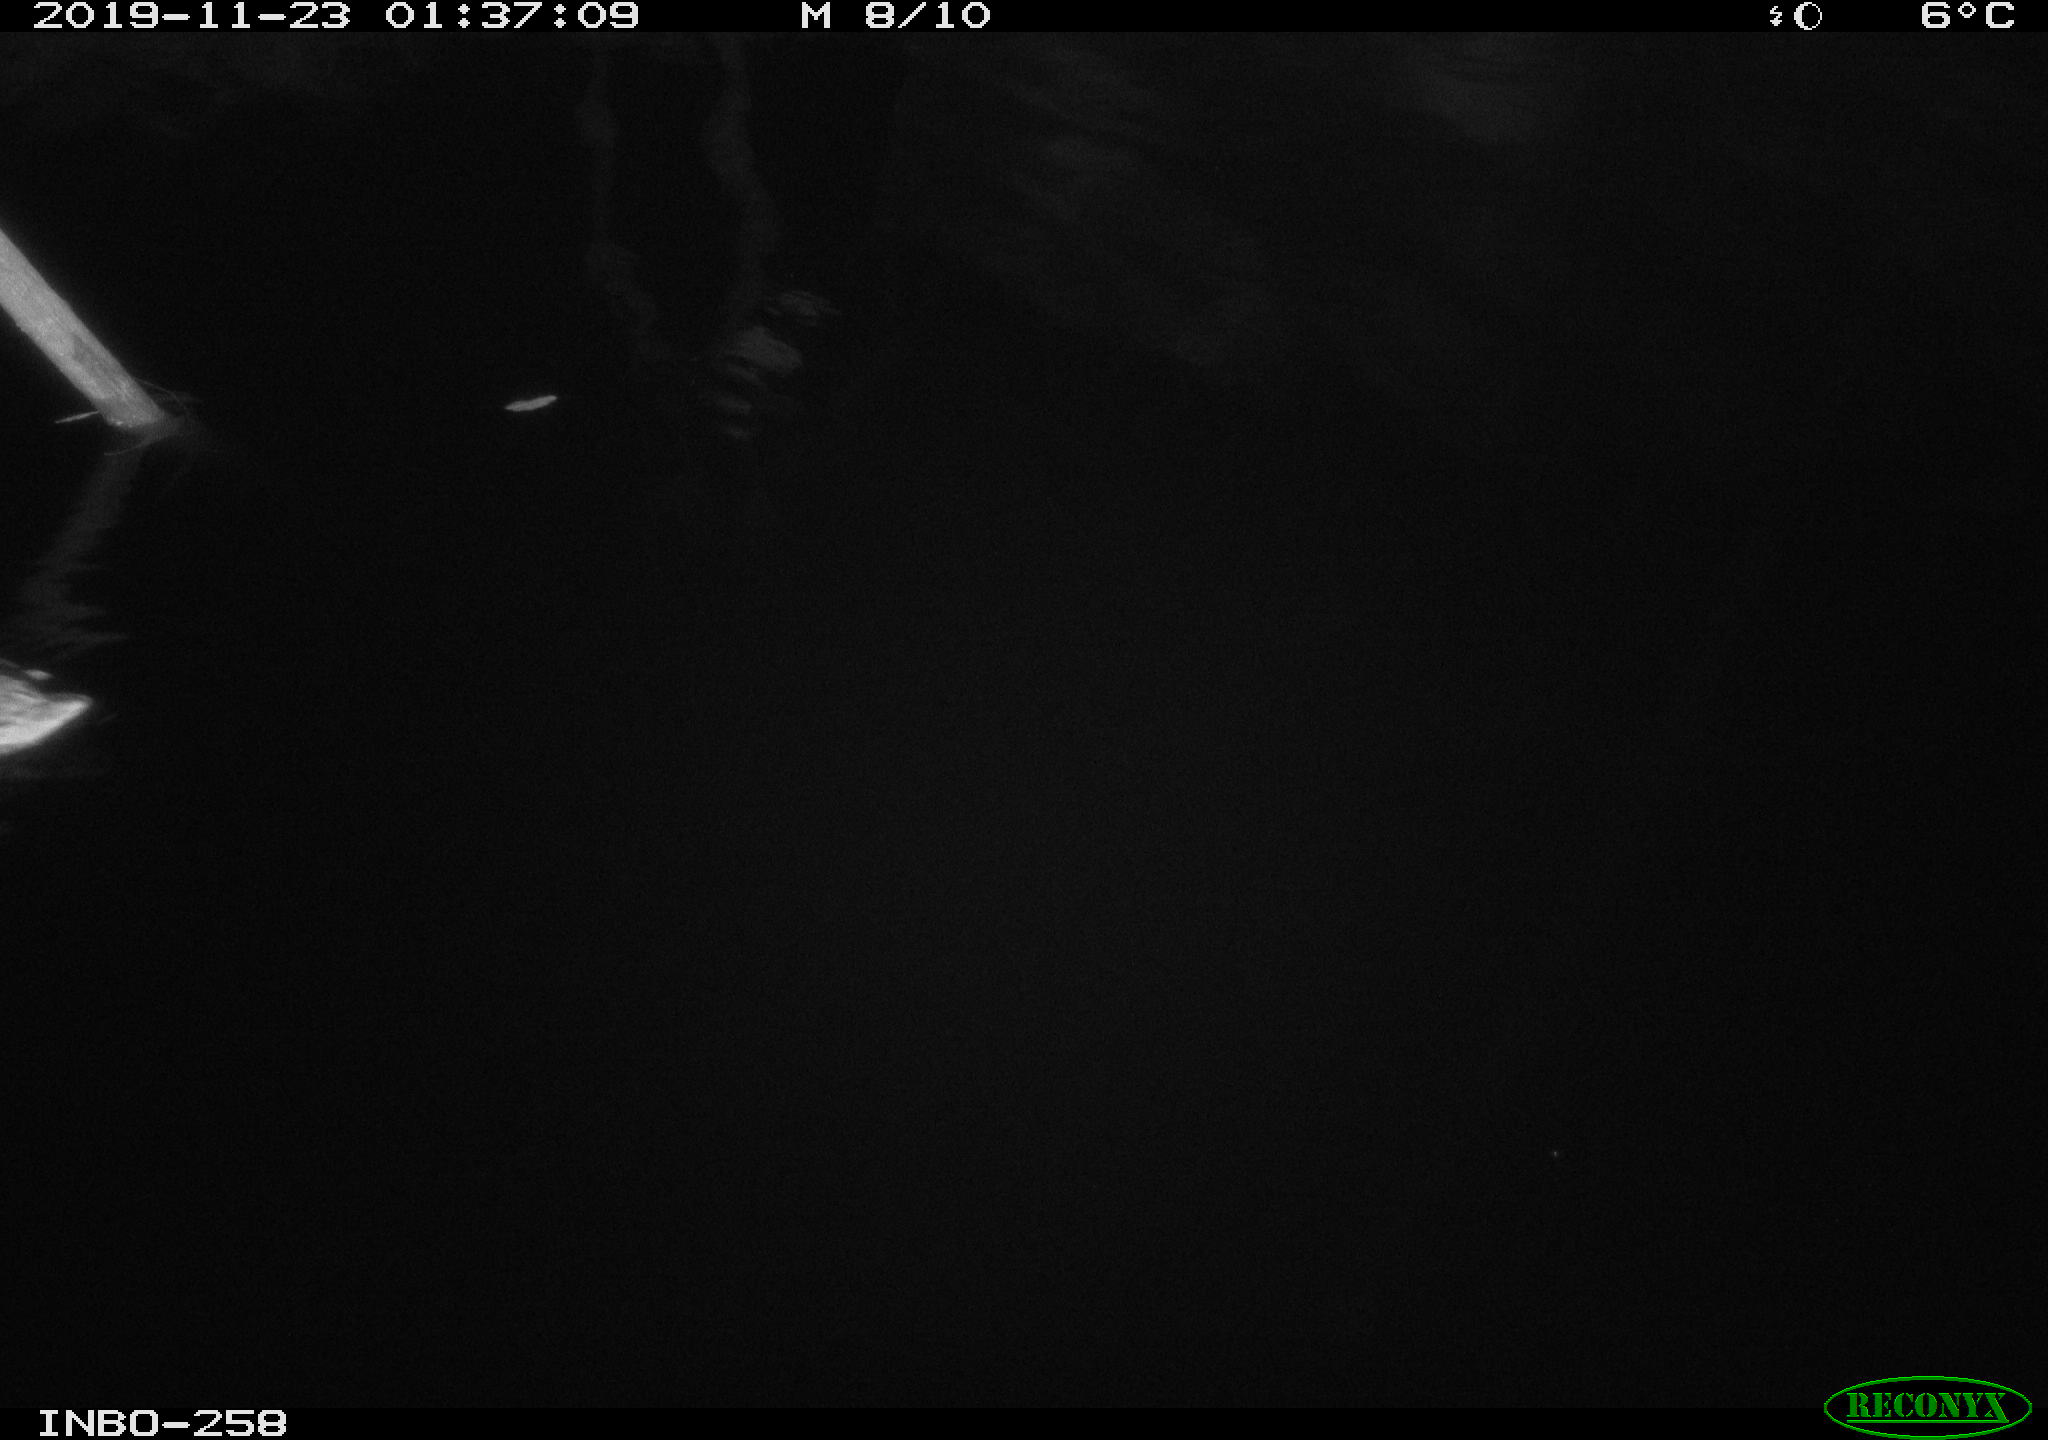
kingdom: Animalia
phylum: Chordata
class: Aves
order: Anseriformes
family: Anatidae
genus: Anas
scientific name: Anas platyrhynchos
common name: Mallard
